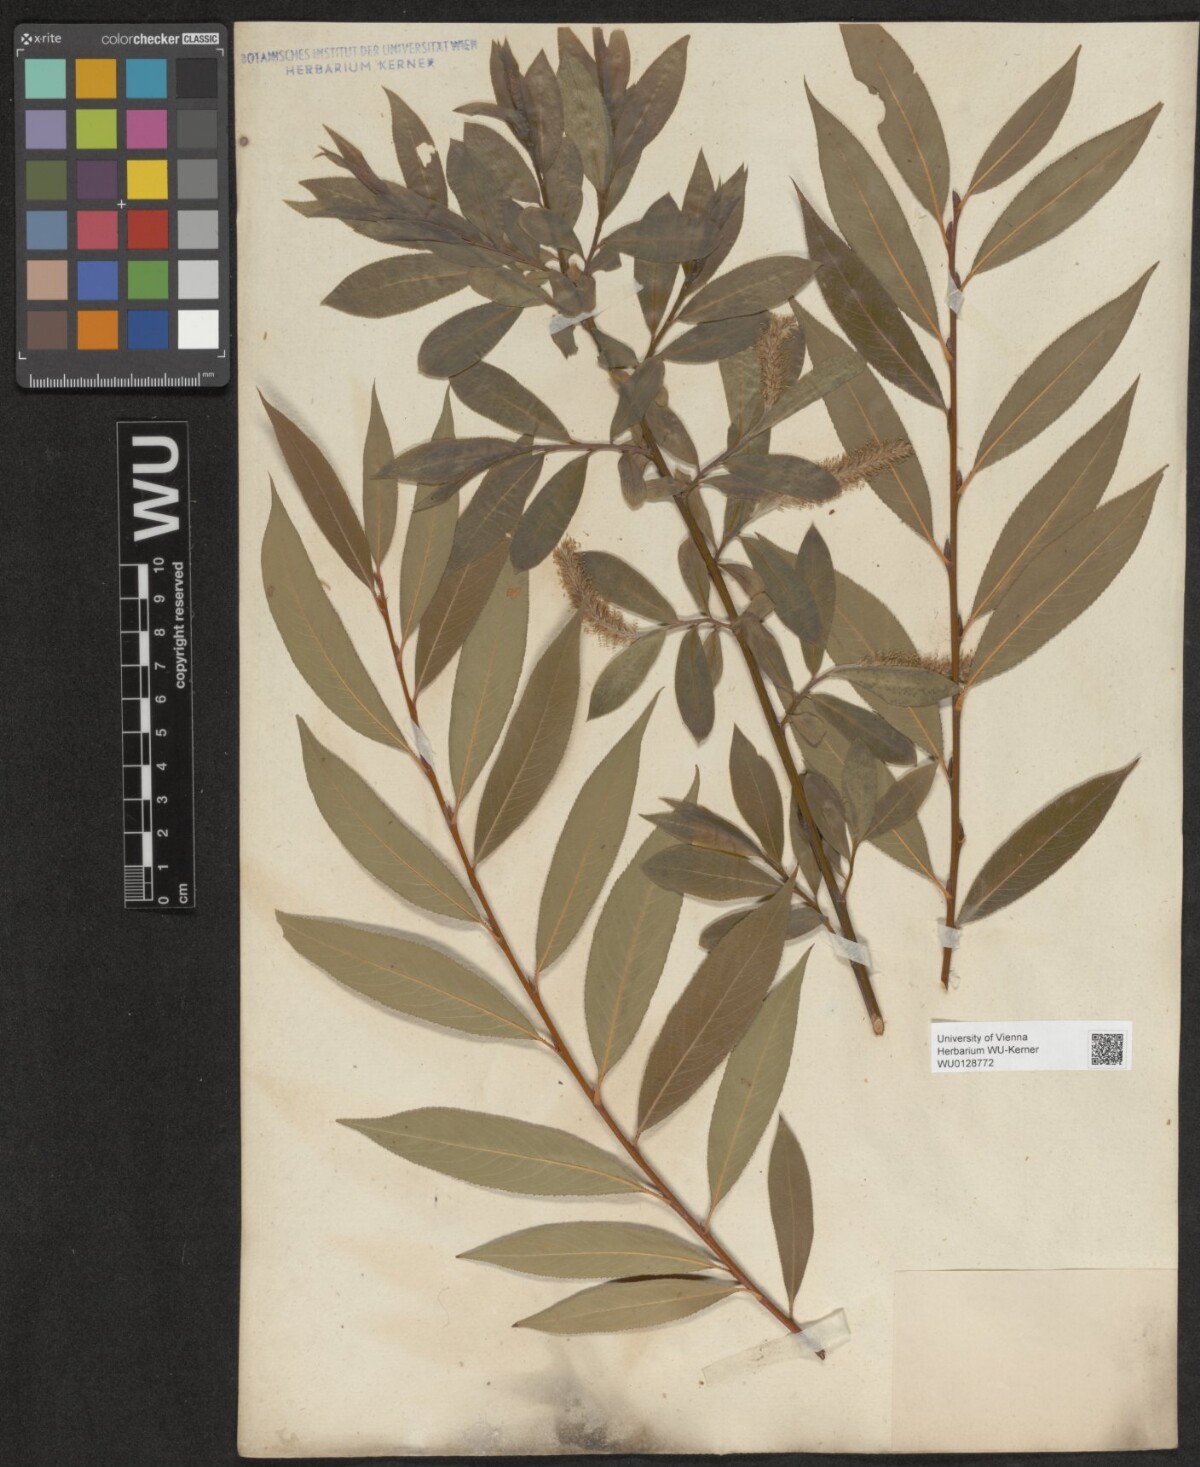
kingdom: Plantae
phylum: Tracheophyta
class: Magnoliopsida
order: Malpighiales
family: Salicaceae
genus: Salix
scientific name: Salix
